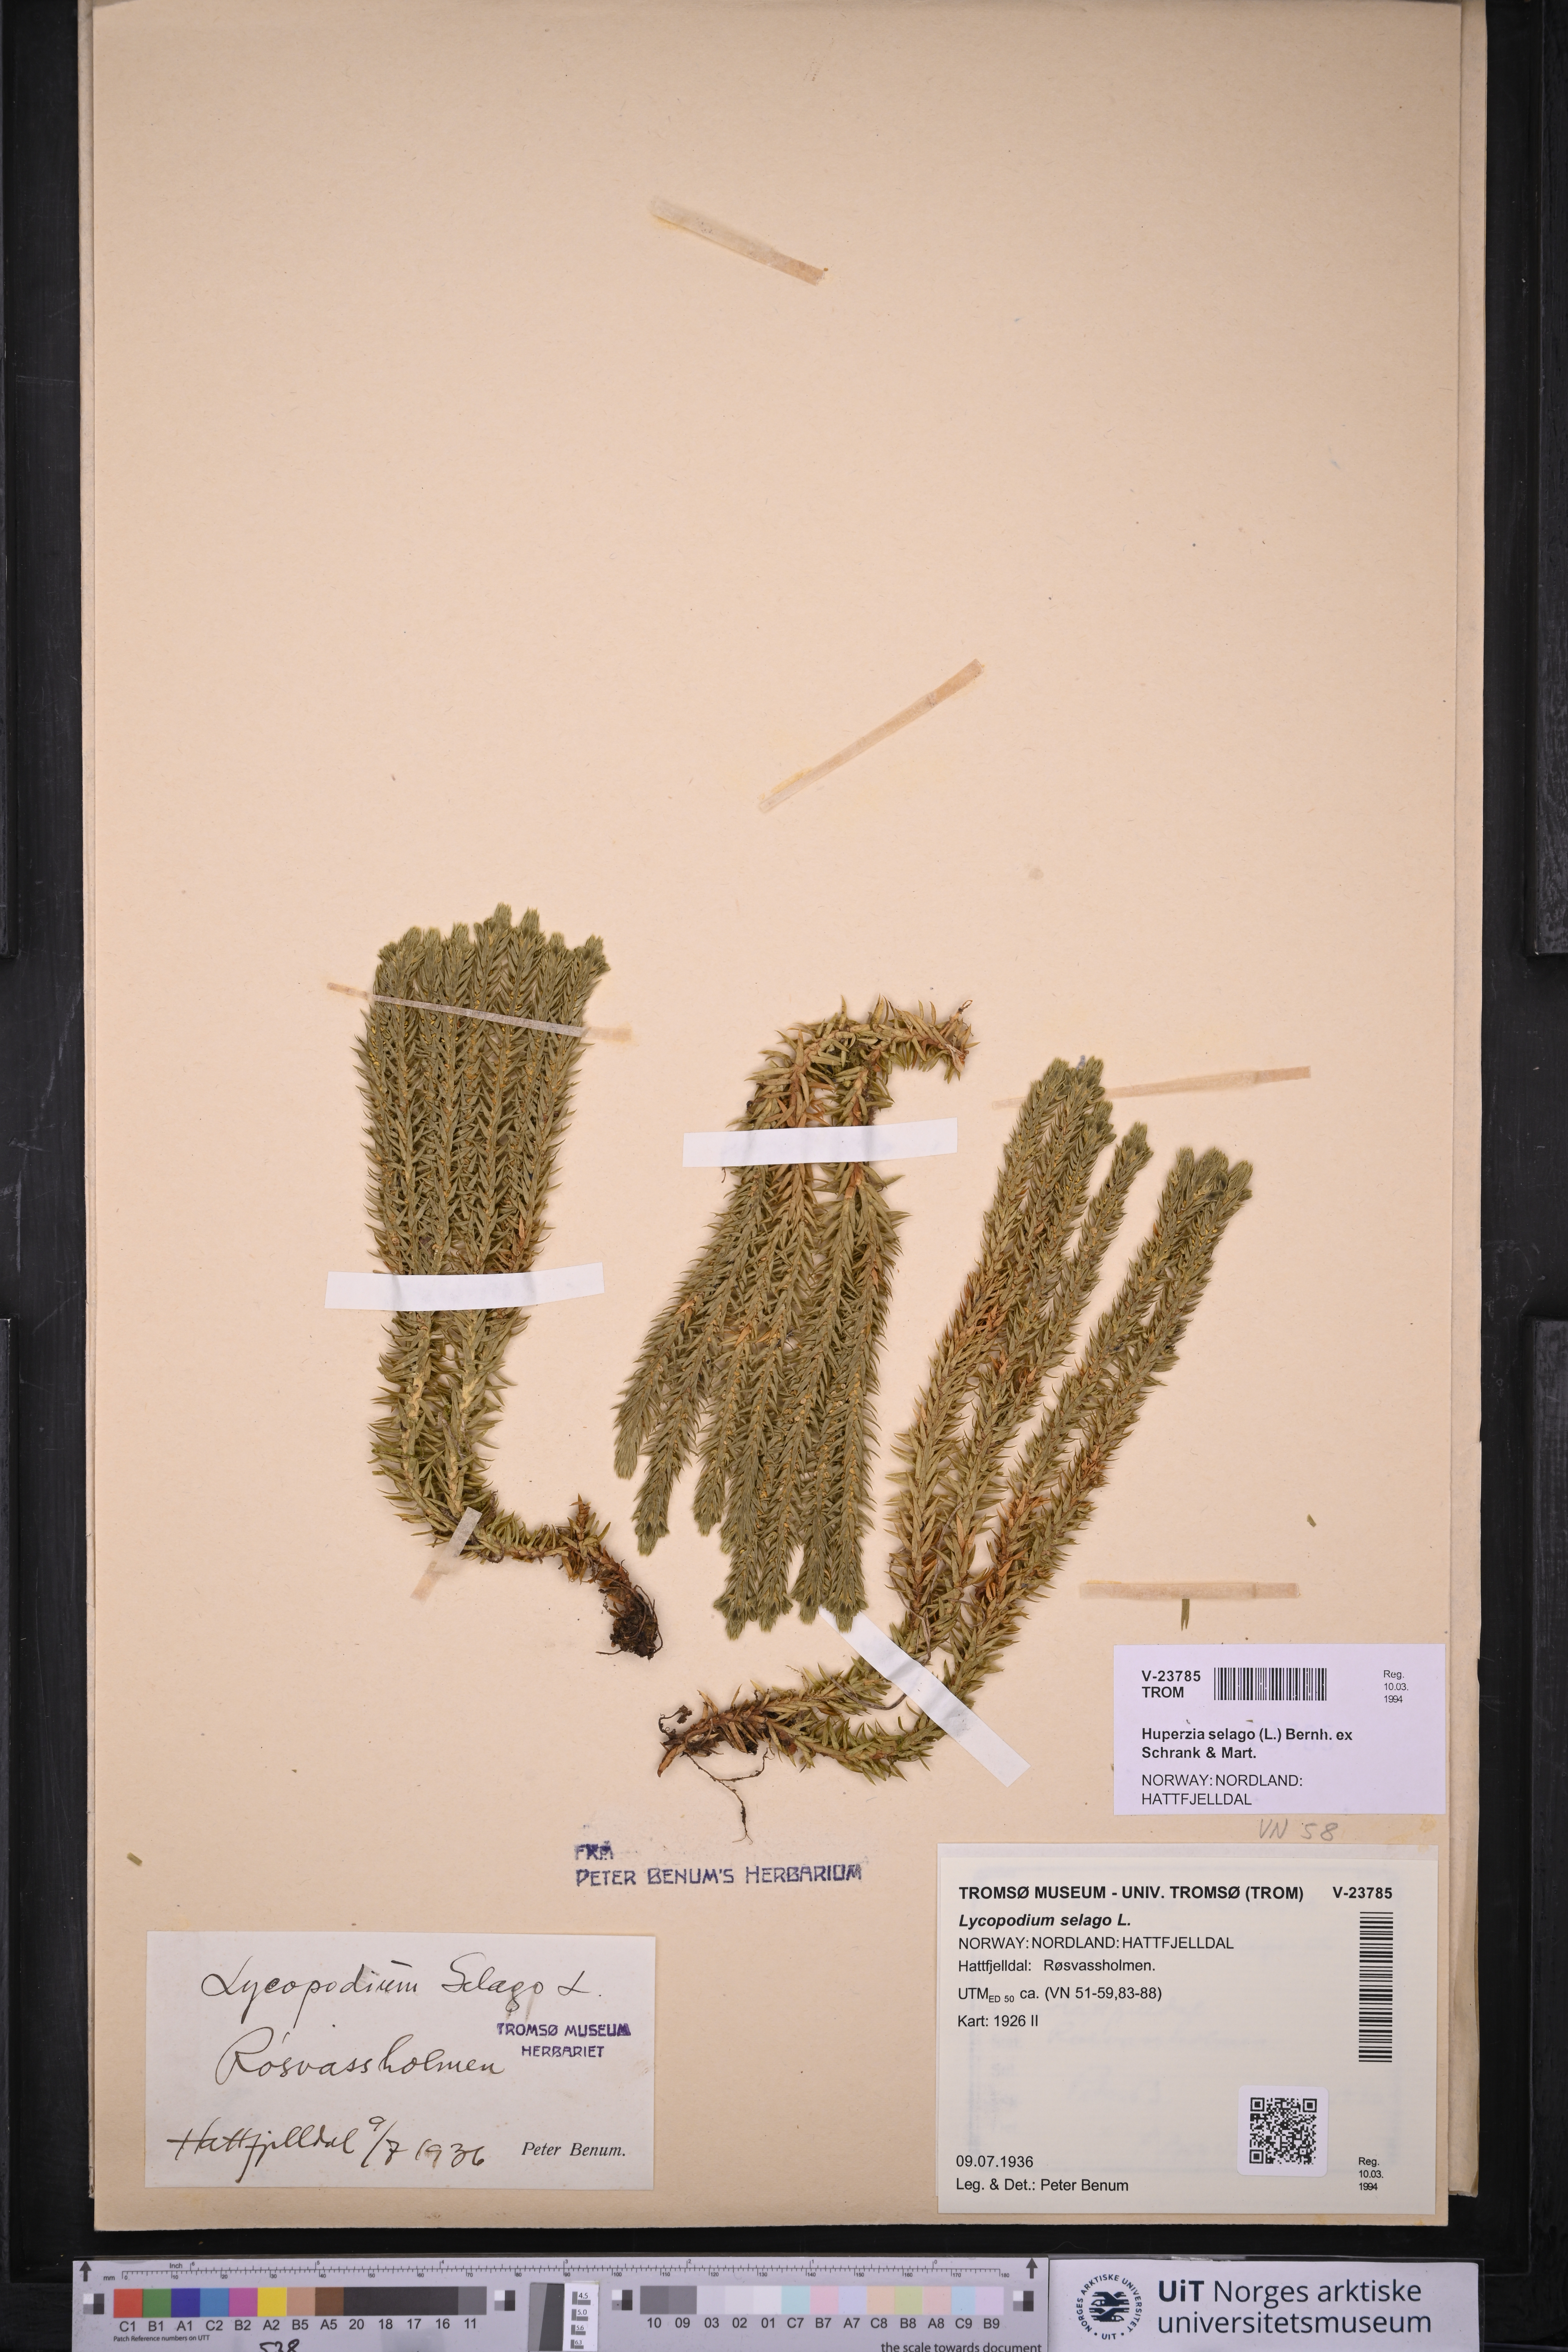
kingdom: Plantae
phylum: Tracheophyta
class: Lycopodiopsida
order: Lycopodiales
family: Lycopodiaceae
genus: Huperzia
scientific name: Huperzia selago
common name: Northern firmoss
